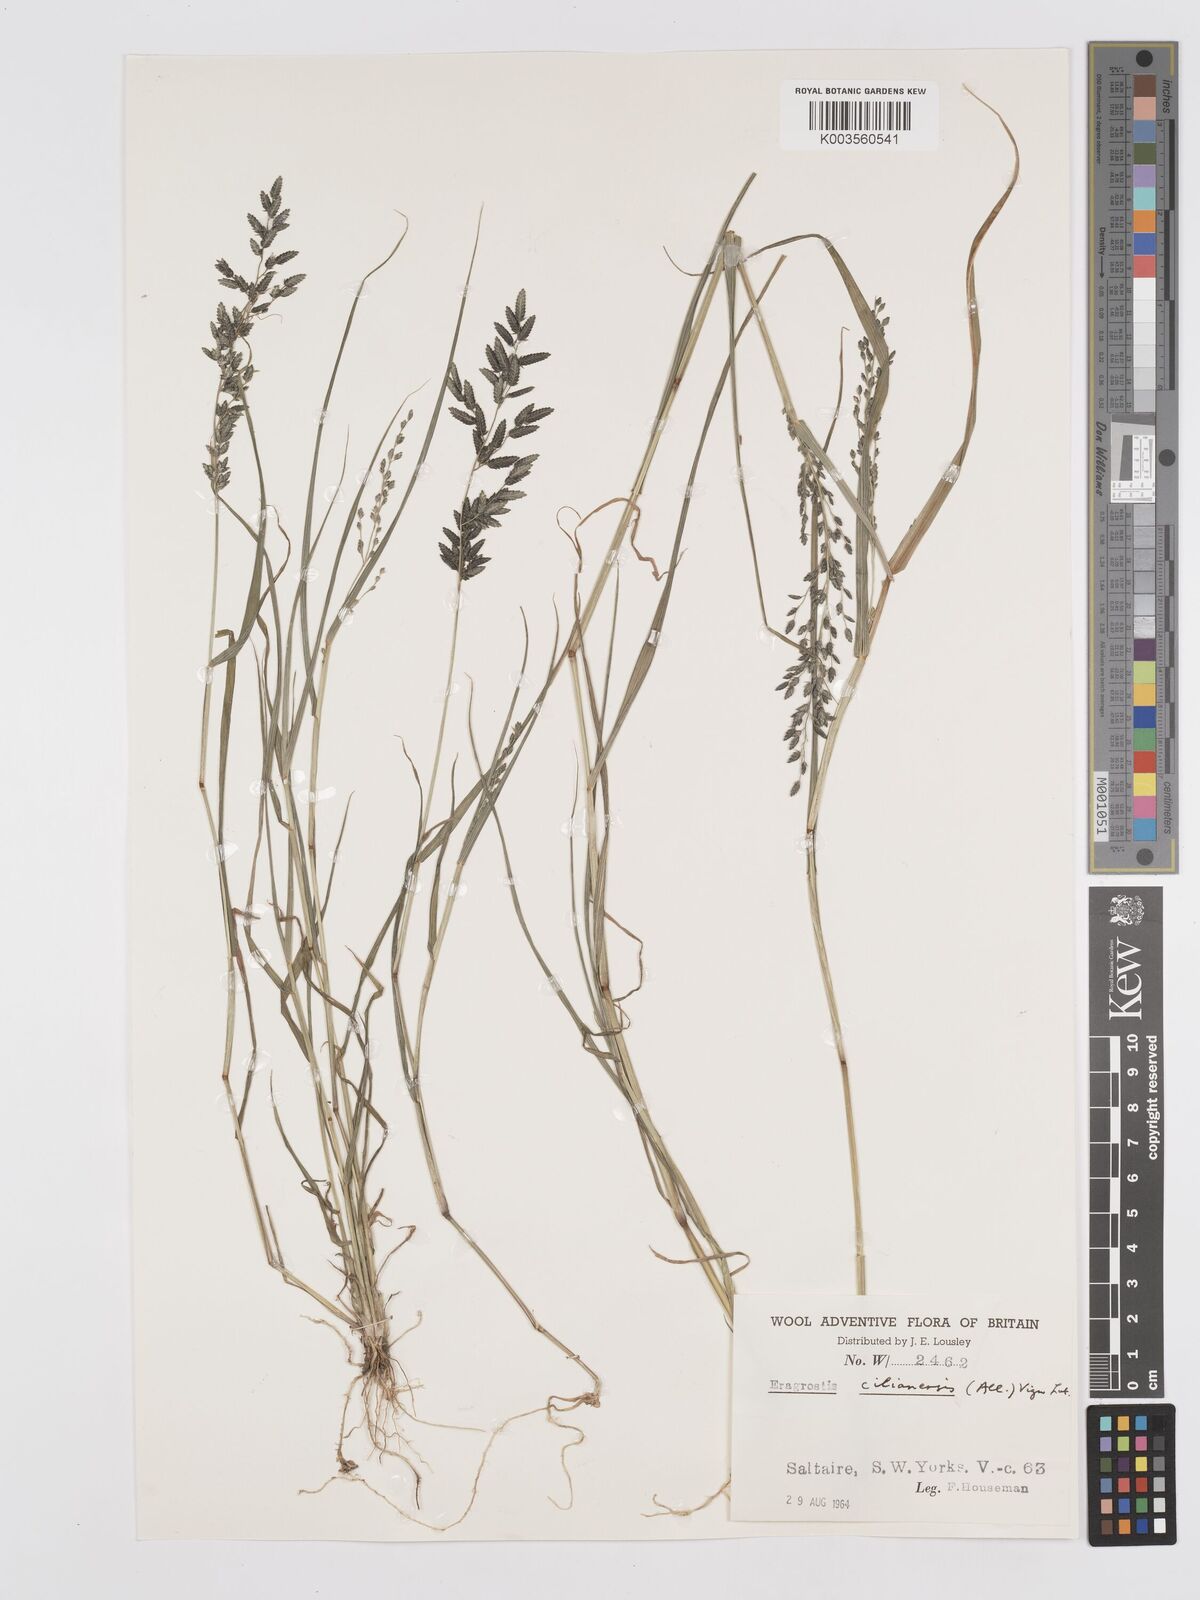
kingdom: Plantae
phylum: Tracheophyta
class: Liliopsida
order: Poales
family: Poaceae
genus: Eragrostis
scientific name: Eragrostis cilianensis
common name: Stinkgrass
